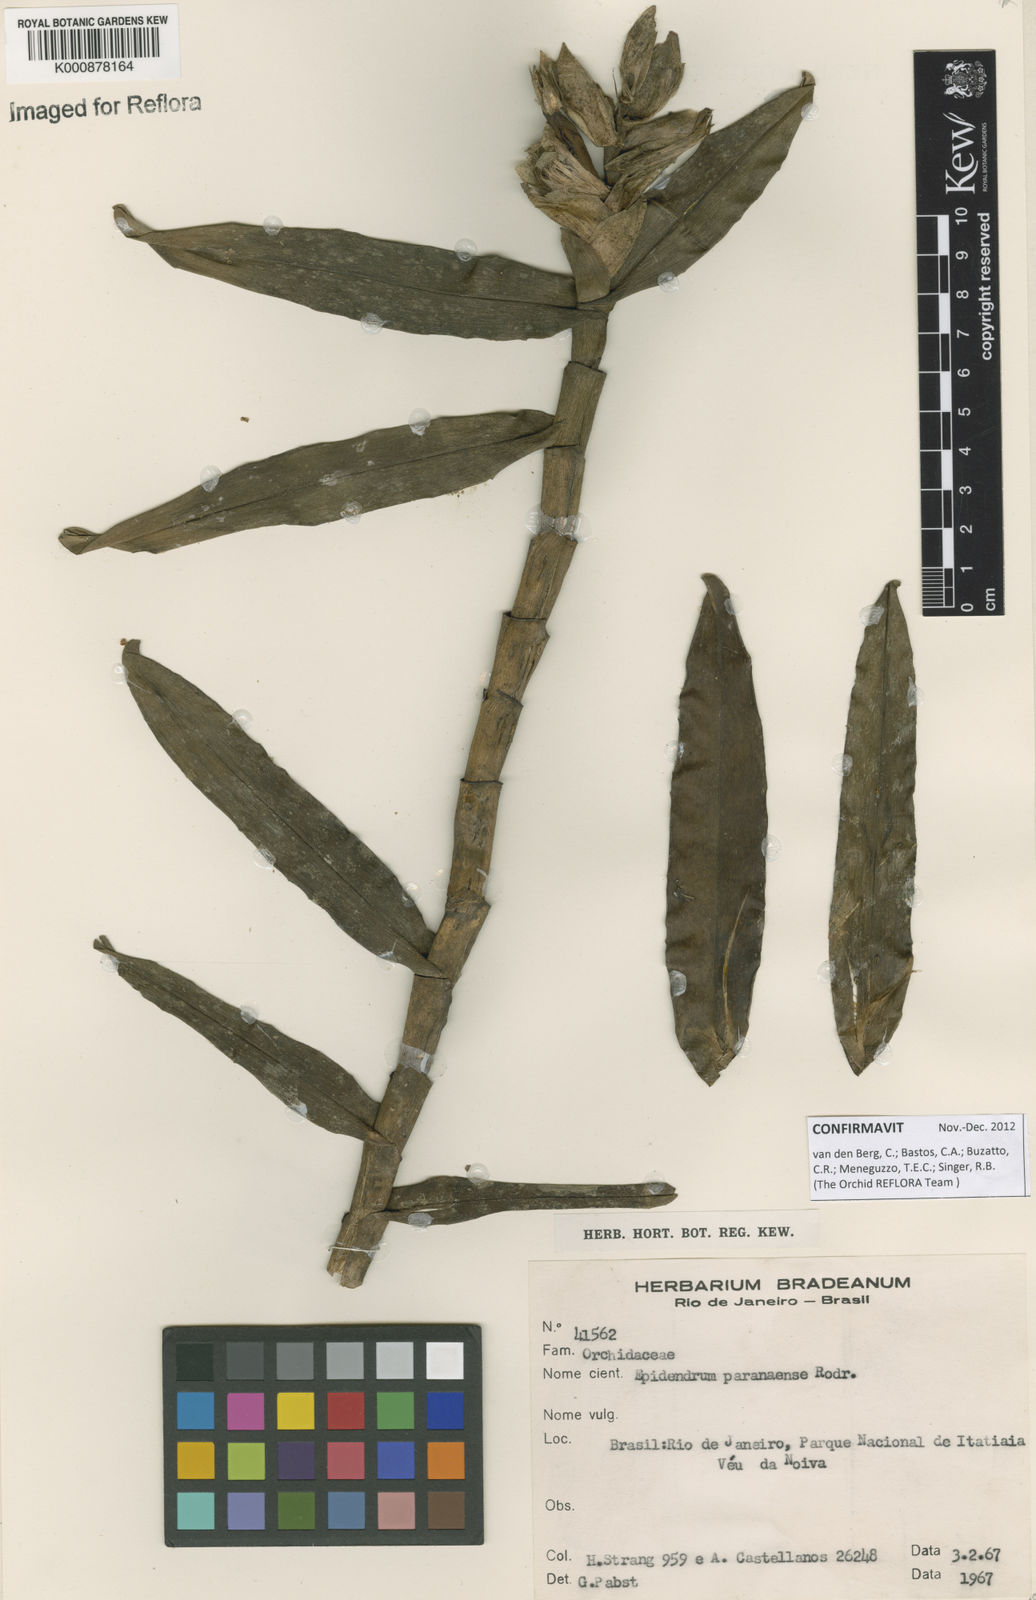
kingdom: Plantae
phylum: Tracheophyta
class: Liliopsida
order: Asparagales
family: Orchidaceae
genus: Epidendrum
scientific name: Epidendrum paranaense
